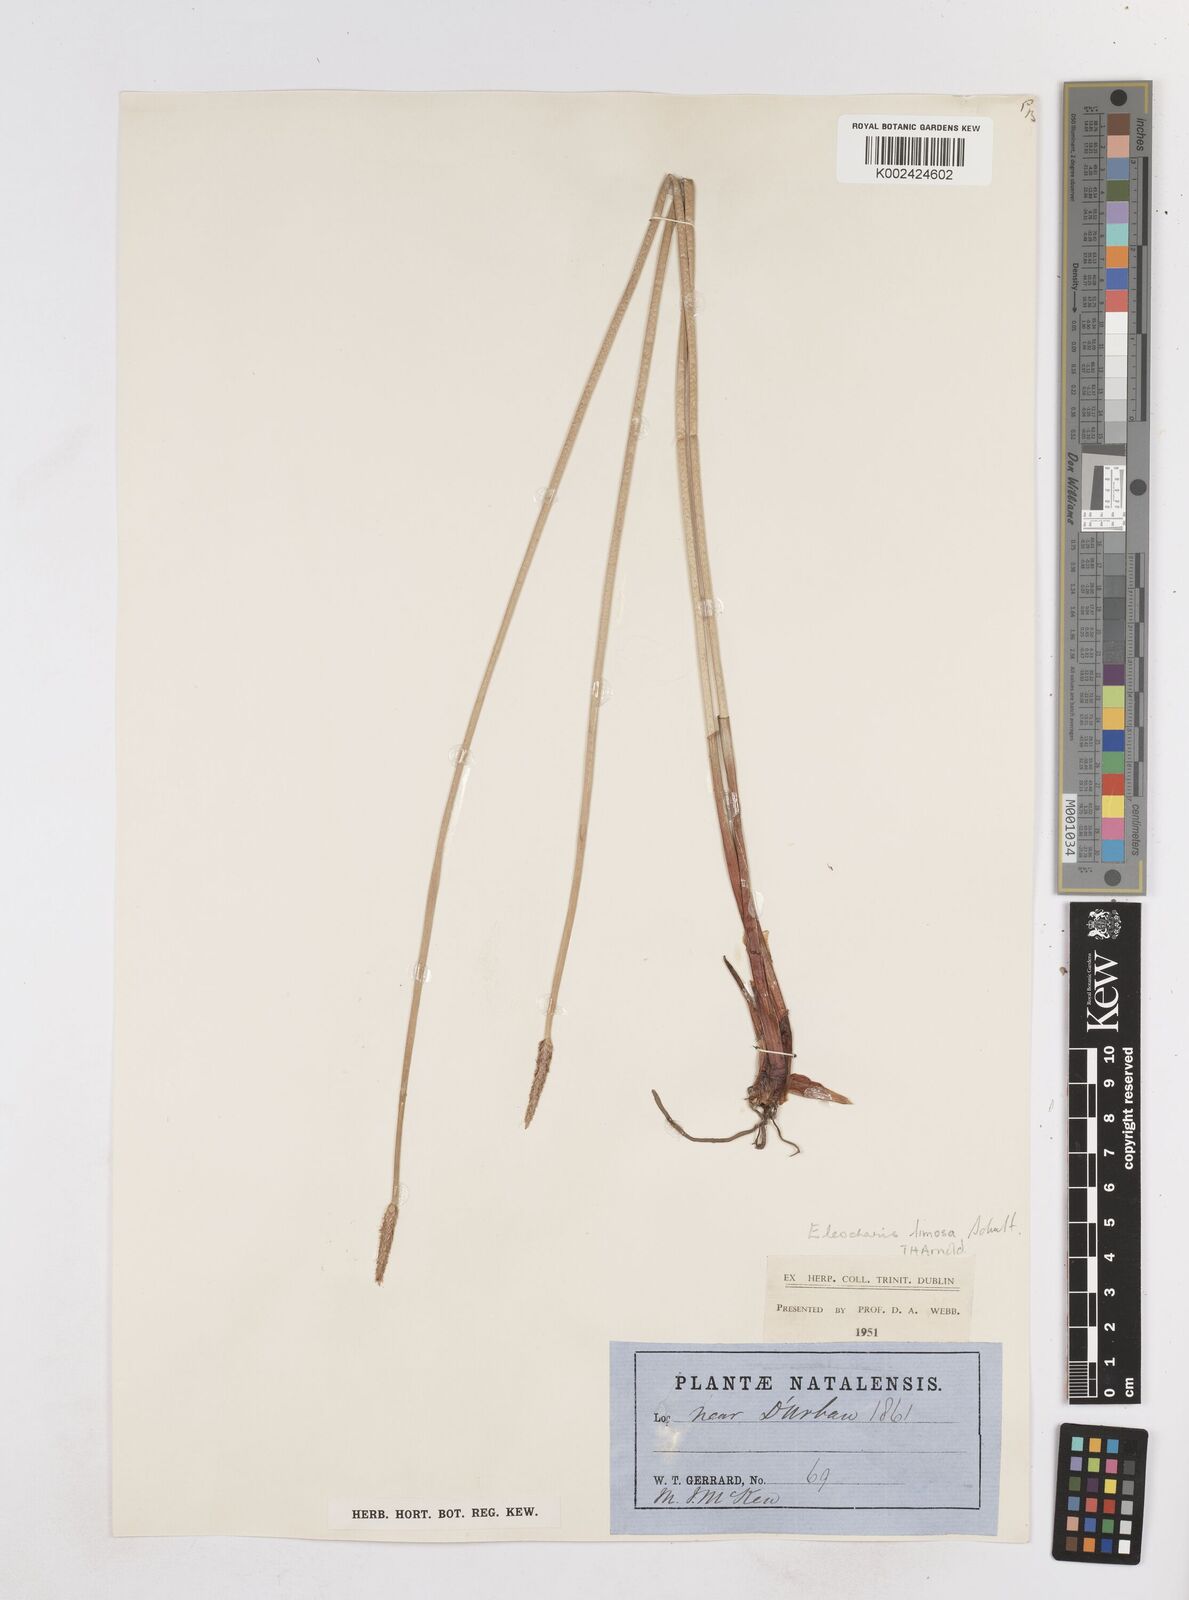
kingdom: Plantae
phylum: Tracheophyta
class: Liliopsida
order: Poales
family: Cyperaceae
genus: Eleocharis
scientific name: Eleocharis limosa
